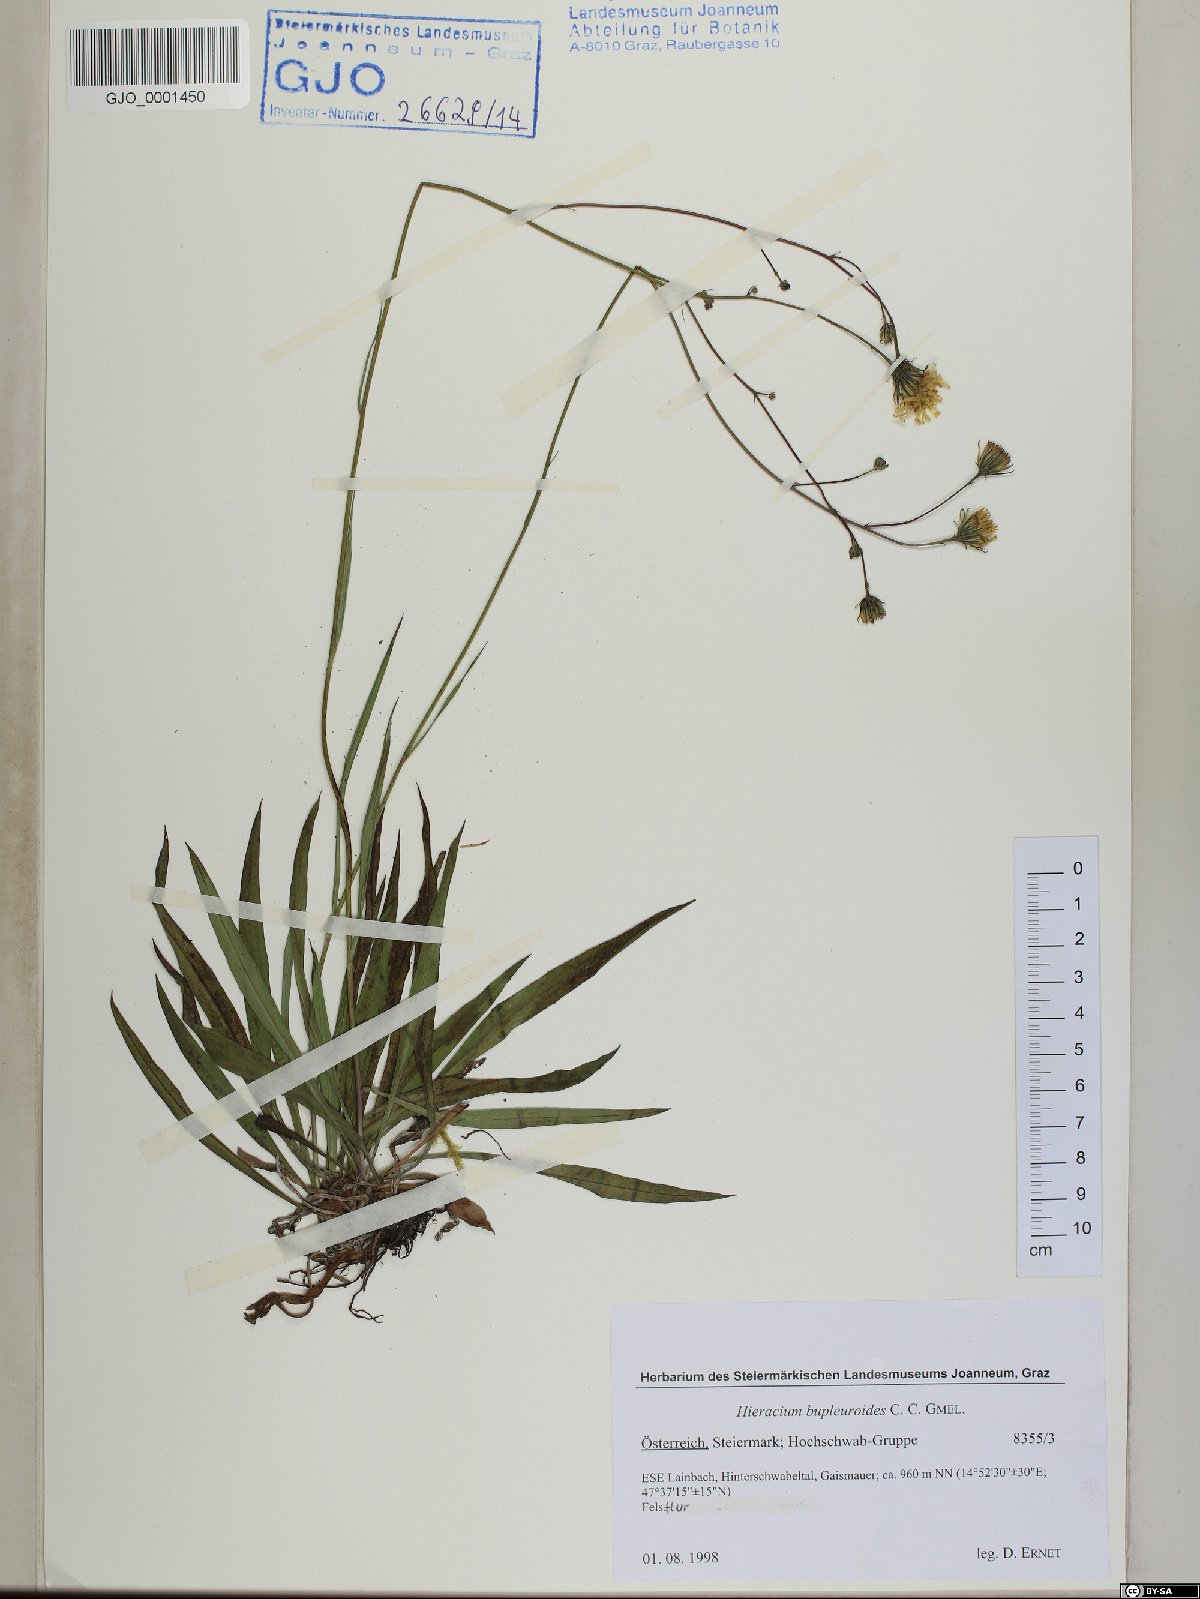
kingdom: Plantae
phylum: Tracheophyta
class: Magnoliopsida
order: Asterales
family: Asteraceae
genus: Hieracium
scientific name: Hieracium bupleuroides
